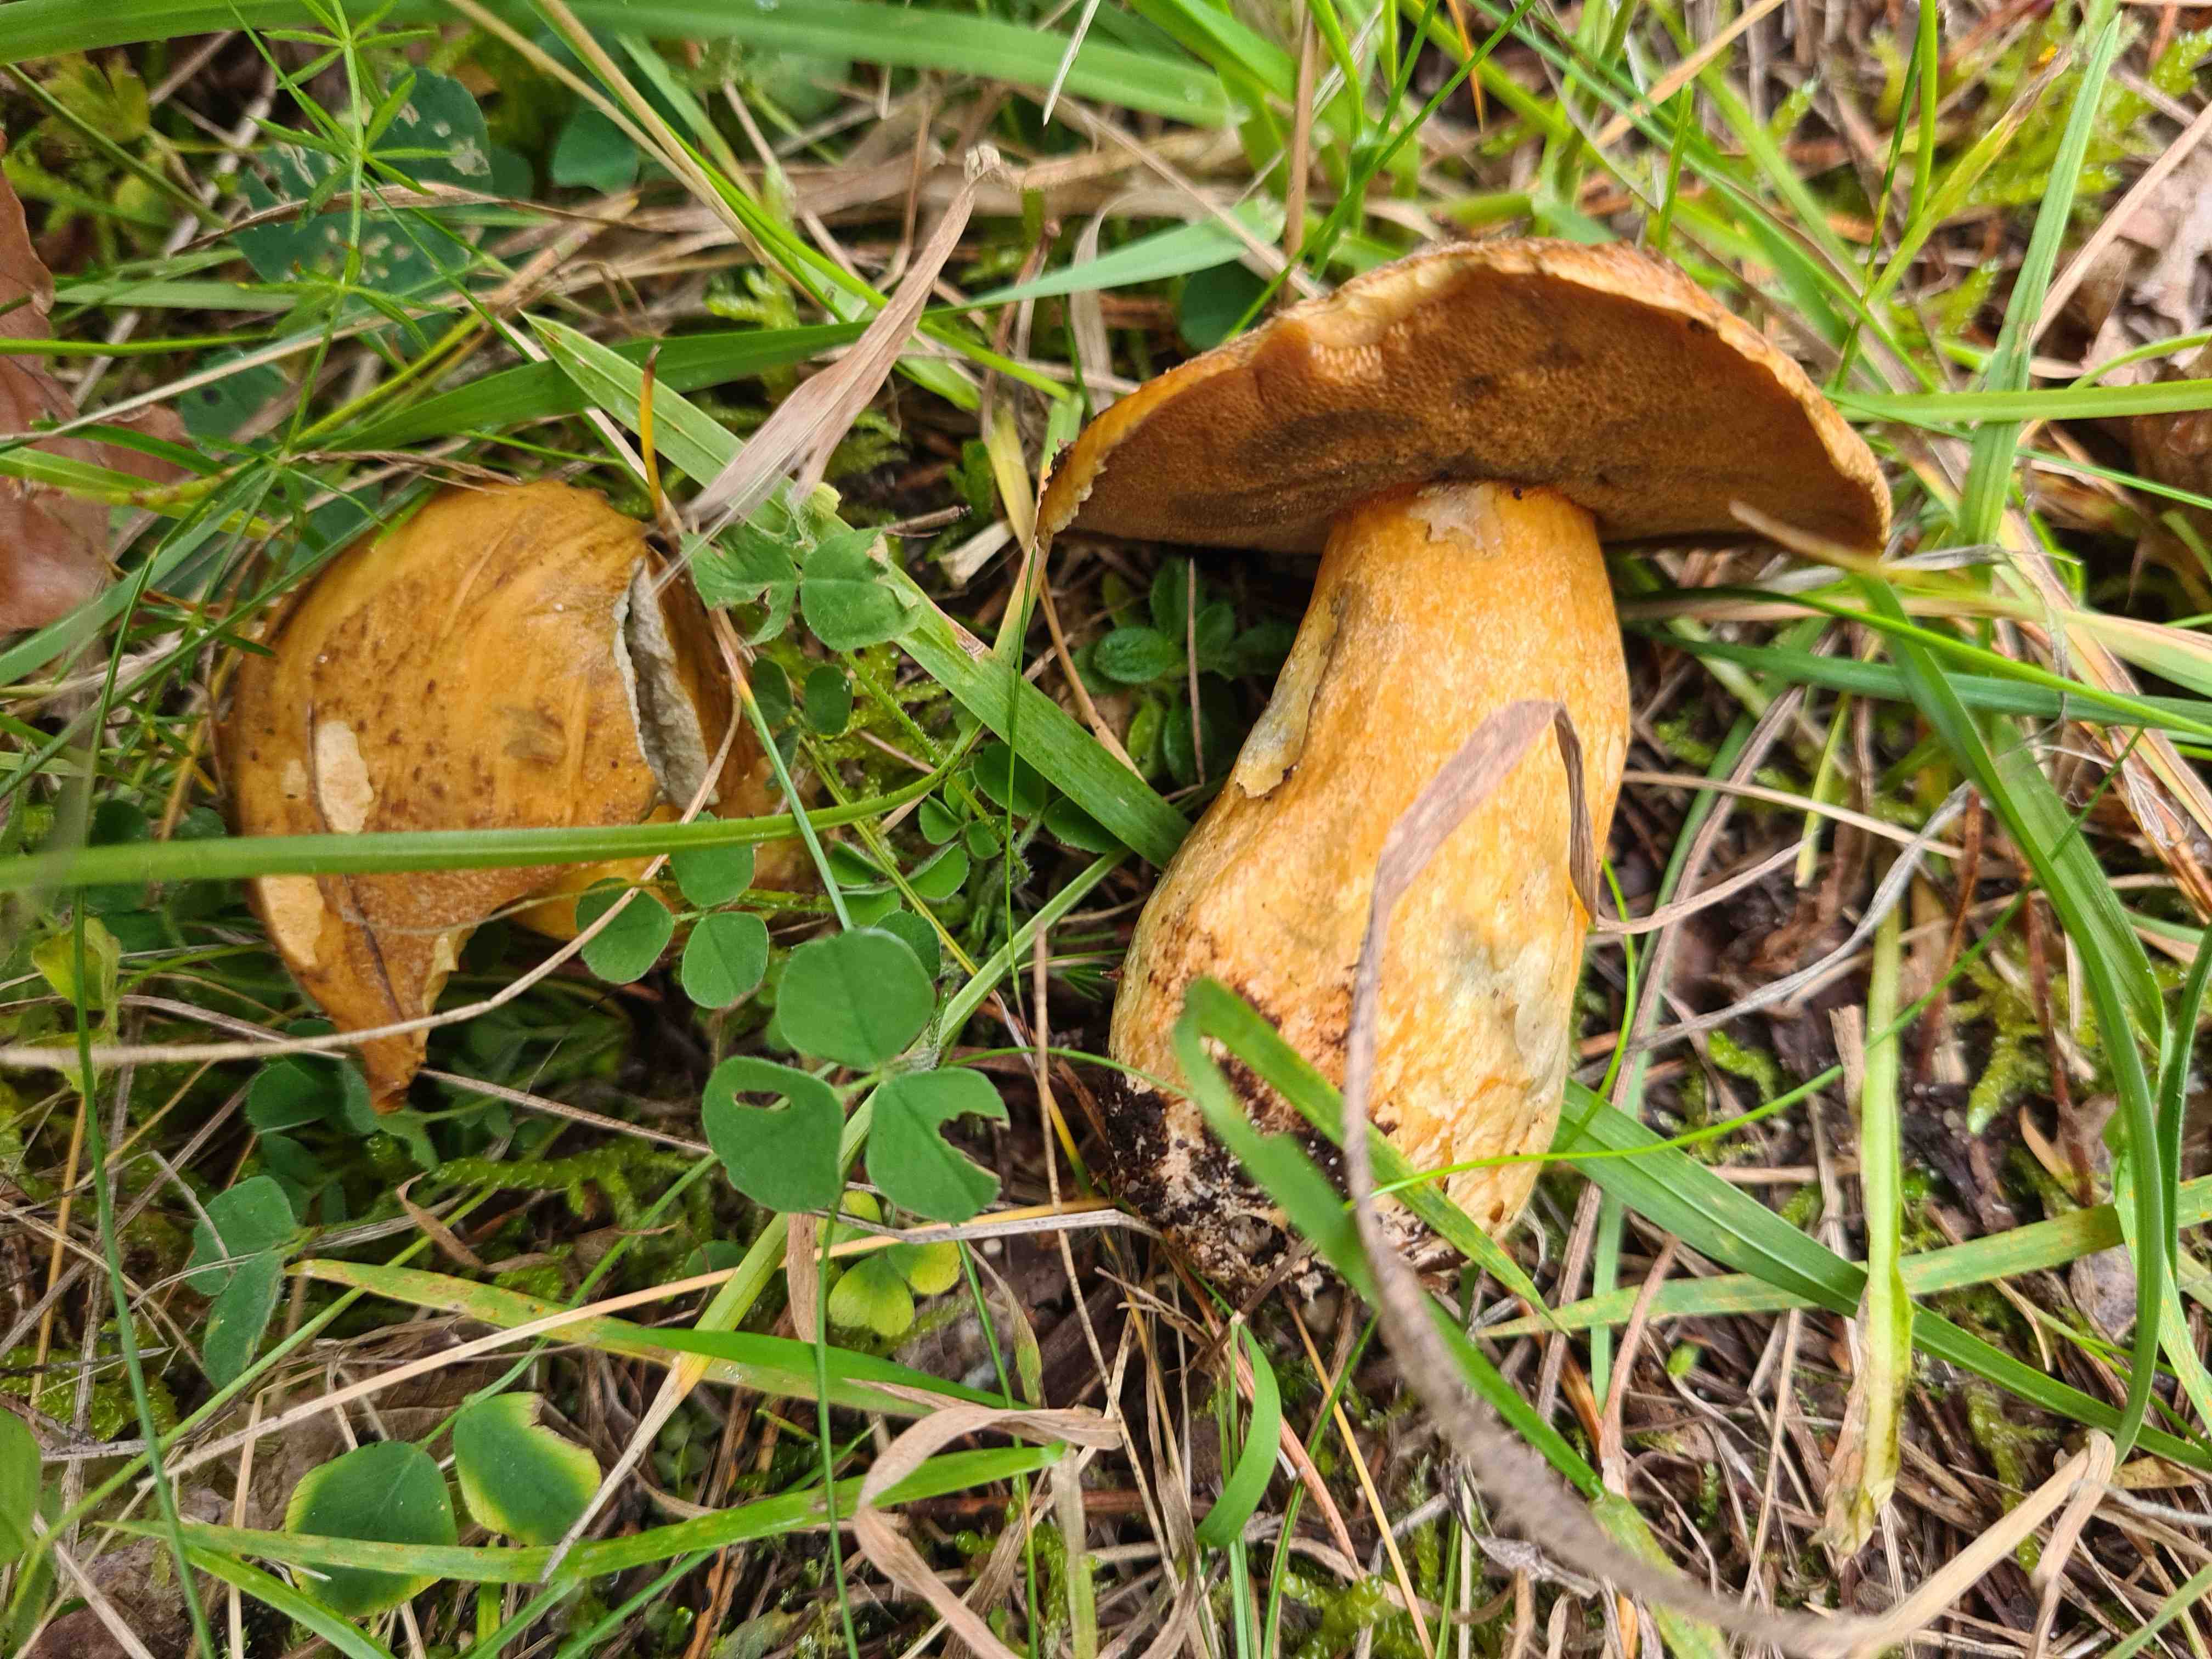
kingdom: Fungi
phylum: Basidiomycota
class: Agaricomycetes
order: Boletales
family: Suillaceae
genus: Suillus
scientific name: Suillus variegatus
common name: broget slimrørhat
